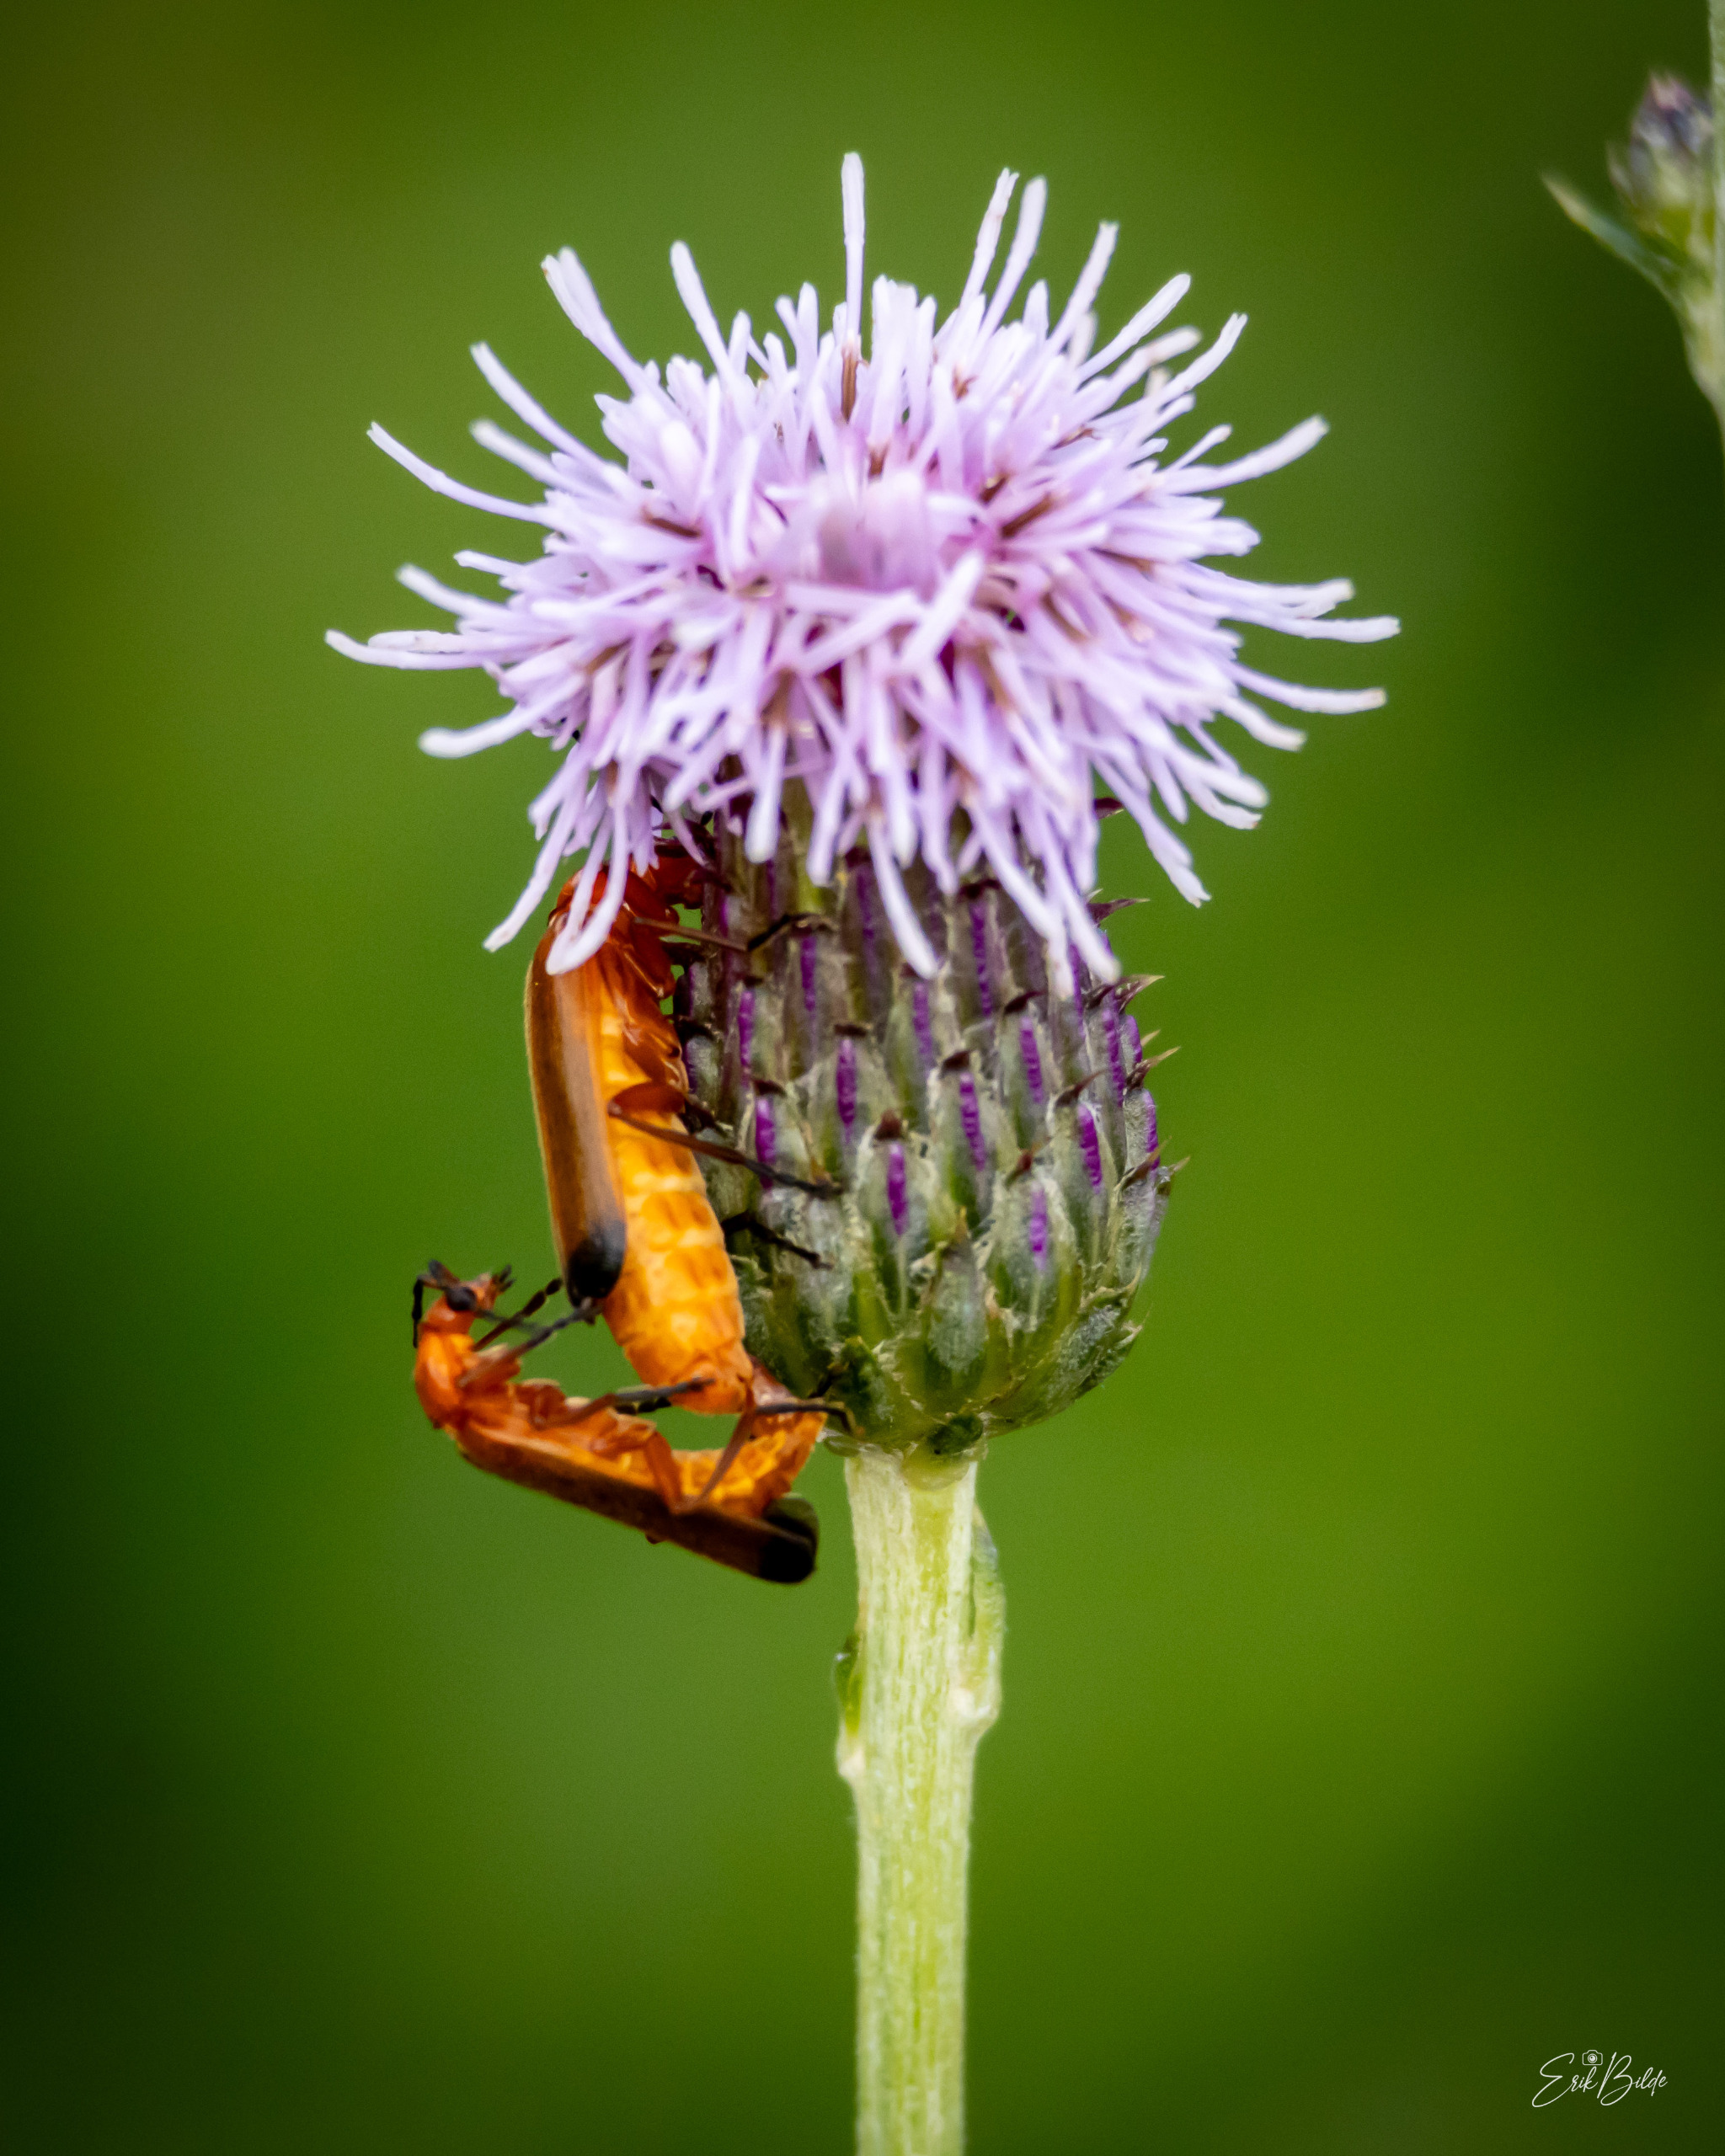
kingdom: Animalia
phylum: Arthropoda
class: Insecta
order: Coleoptera
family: Cantharidae
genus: Rhagonycha
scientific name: Rhagonycha fulva
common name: Præstebille
